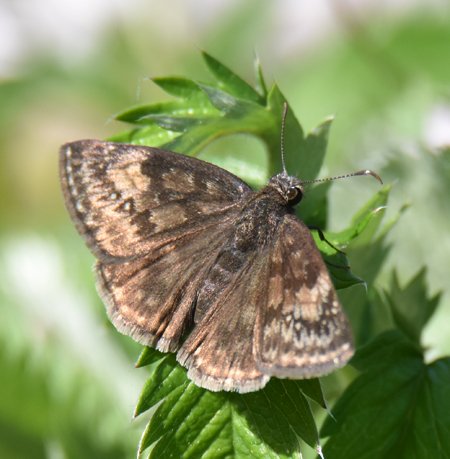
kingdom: Animalia
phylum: Arthropoda
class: Insecta
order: Lepidoptera
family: Hesperiidae
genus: Gesta
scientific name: Gesta
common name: Wild Indigo Duskywing
